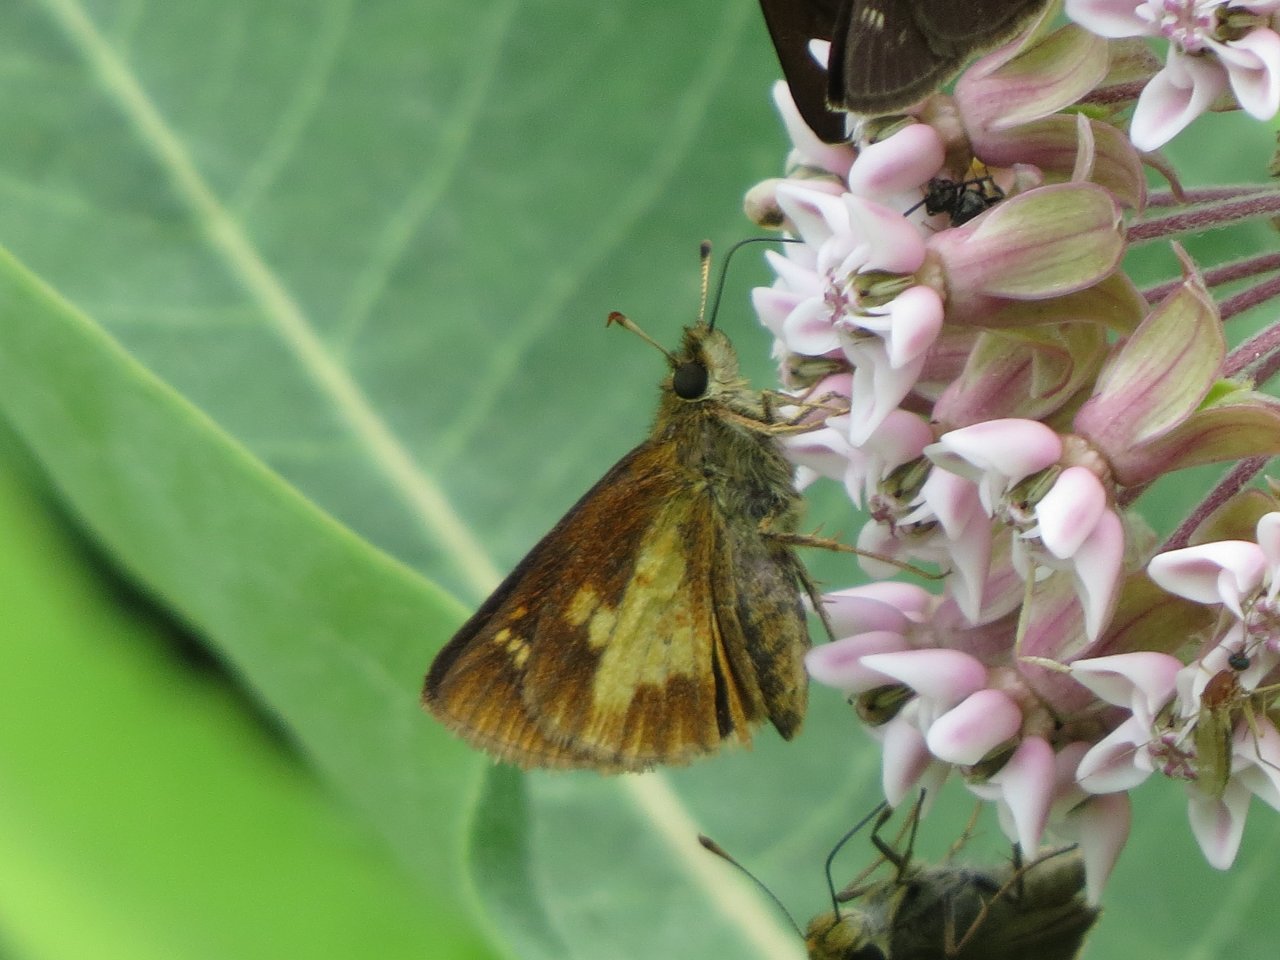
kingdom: Animalia
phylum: Arthropoda
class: Insecta
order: Lepidoptera
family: Hesperiidae
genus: Poanes
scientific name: Poanes massasoit
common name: Mulberry Wing
